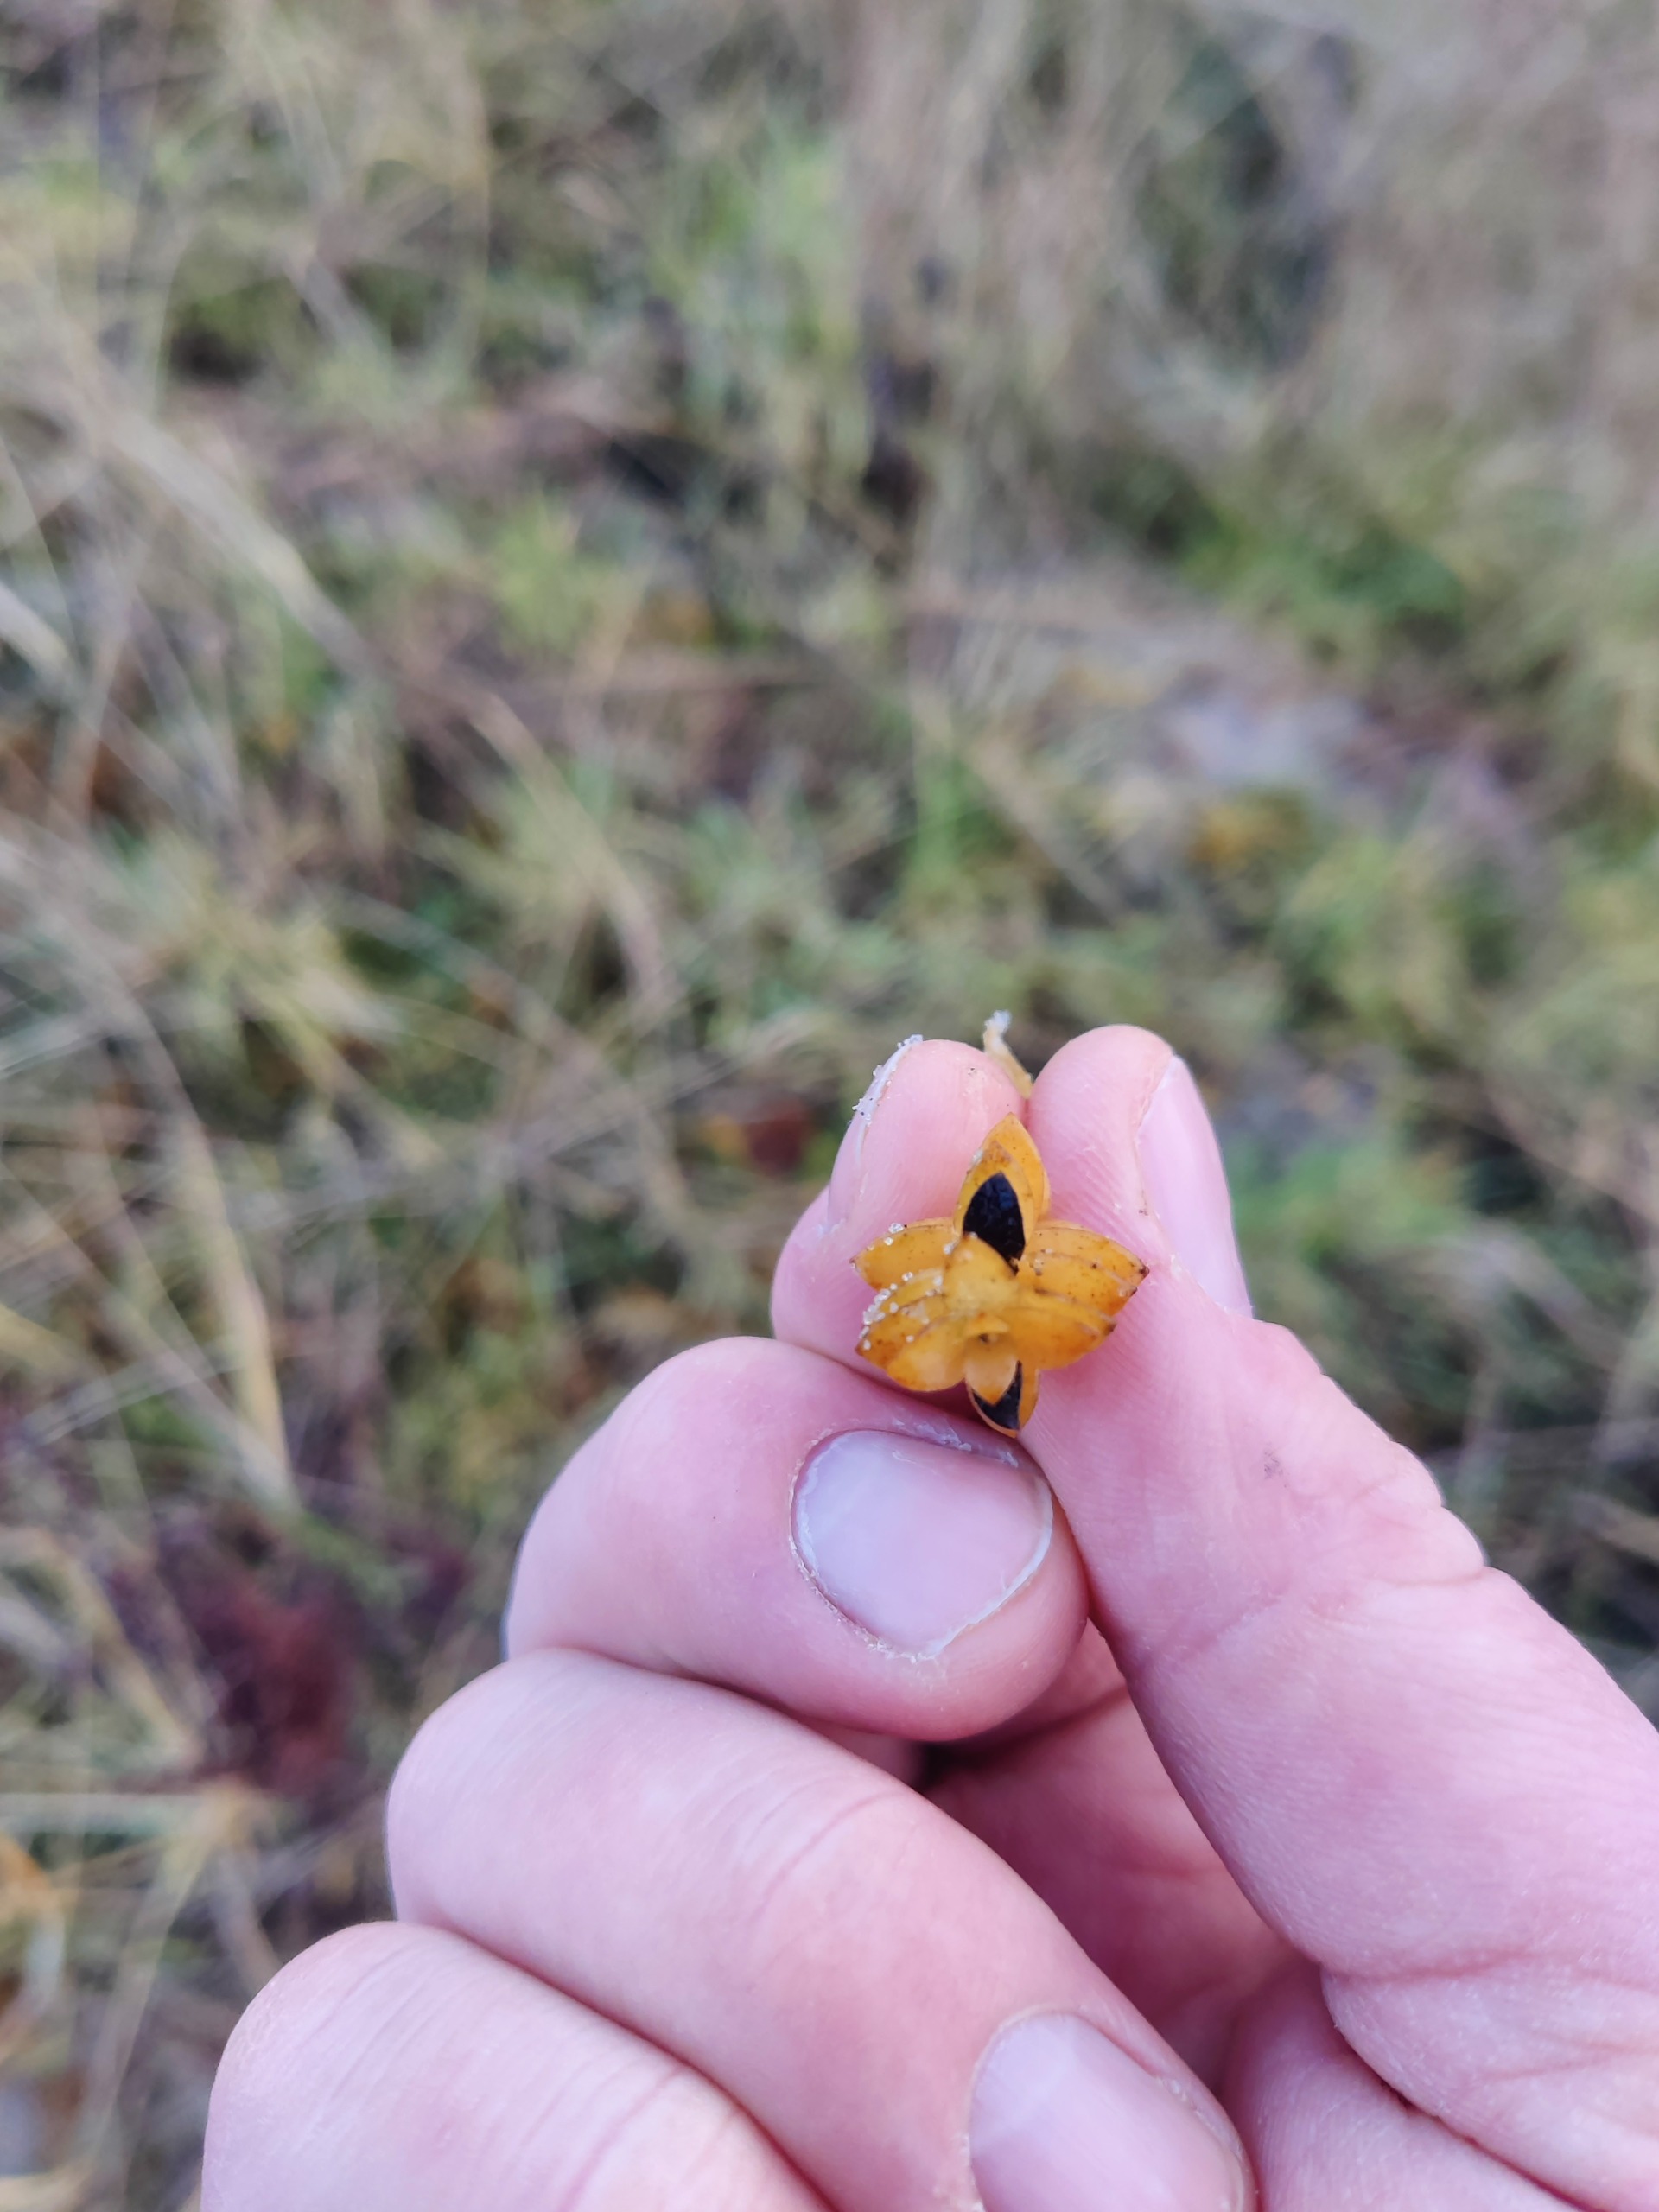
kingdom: Plantae
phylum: Tracheophyta
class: Magnoliopsida
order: Caryophyllales
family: Caryophyllaceae
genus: Honckenya
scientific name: Honckenya peploides
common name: Strandarve
